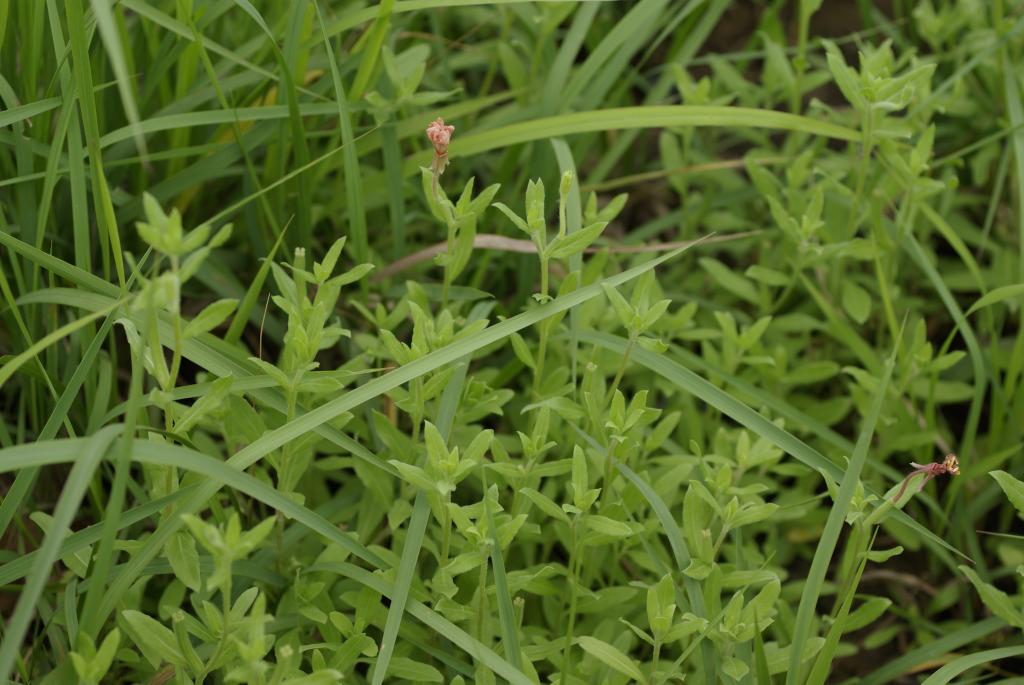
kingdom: Plantae
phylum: Tracheophyta
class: Magnoliopsida
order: Myrtales
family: Onagraceae
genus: Oenothera
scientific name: Oenothera laciniata
